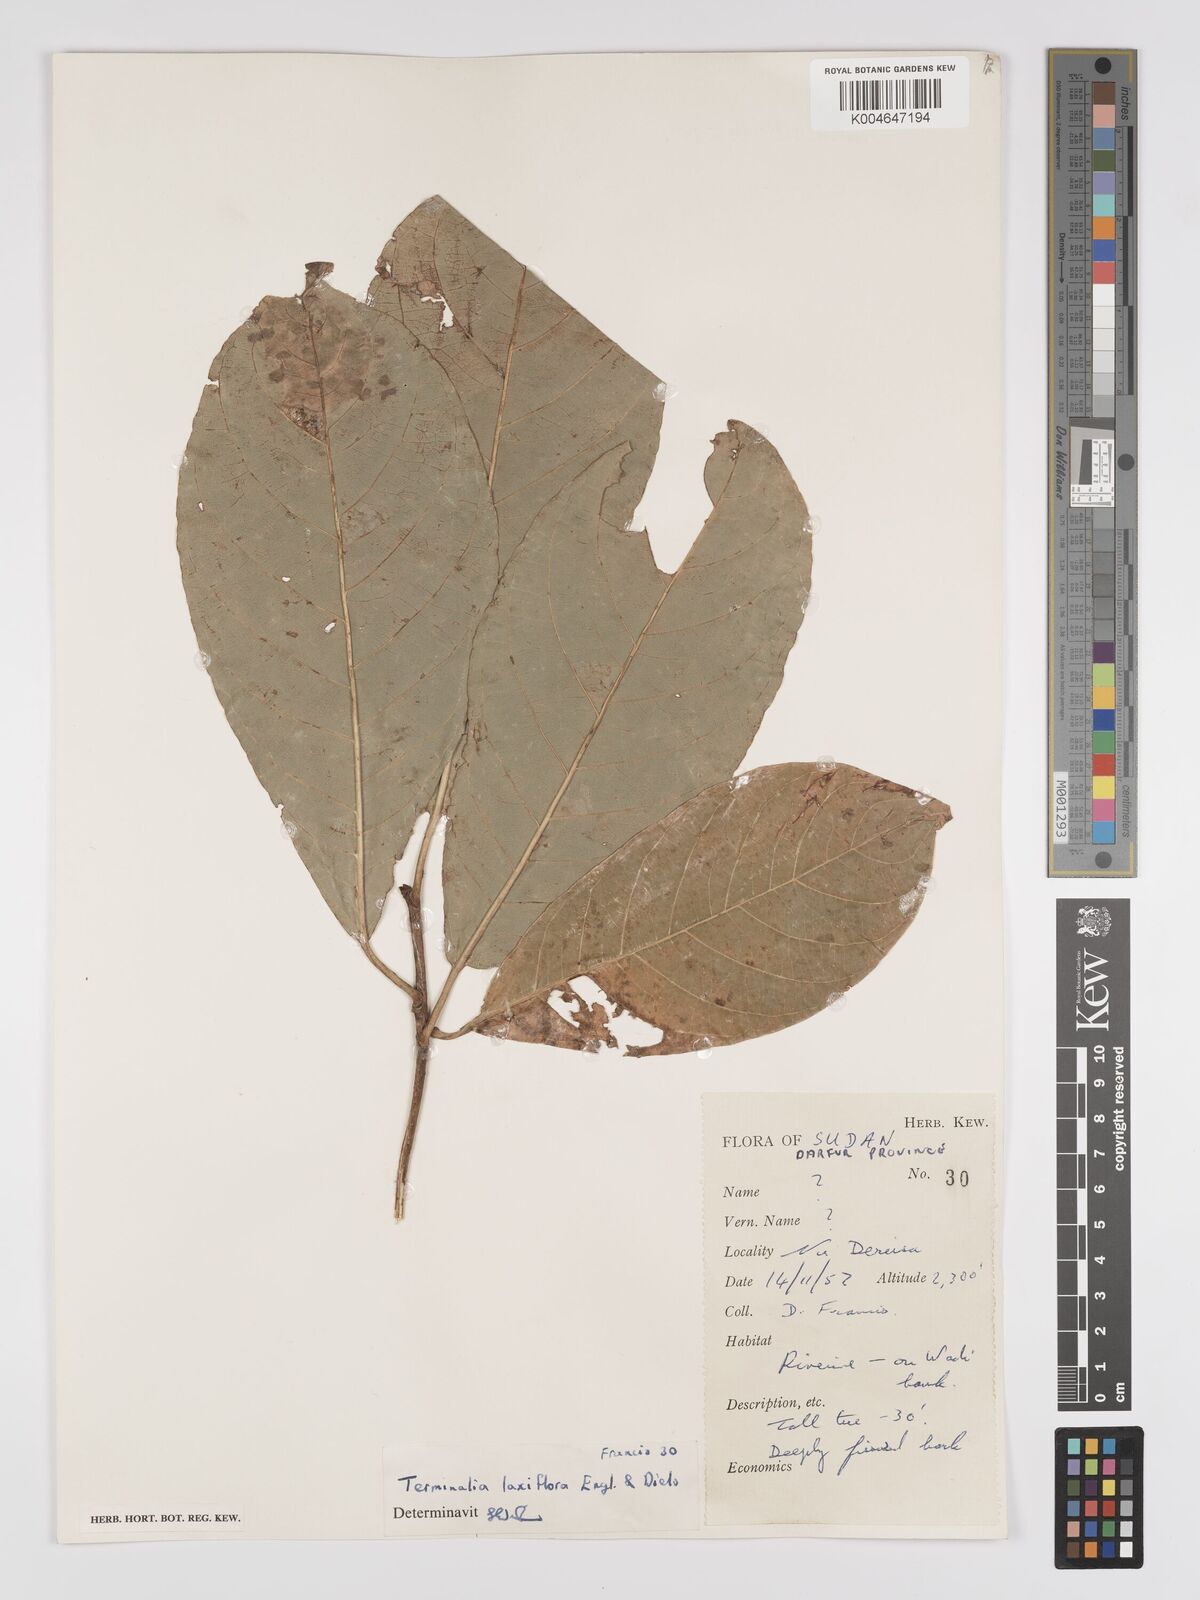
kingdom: Plantae
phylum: Tracheophyta
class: Magnoliopsida
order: Myrtales
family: Combretaceae
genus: Terminalia
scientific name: Terminalia schimperiana
